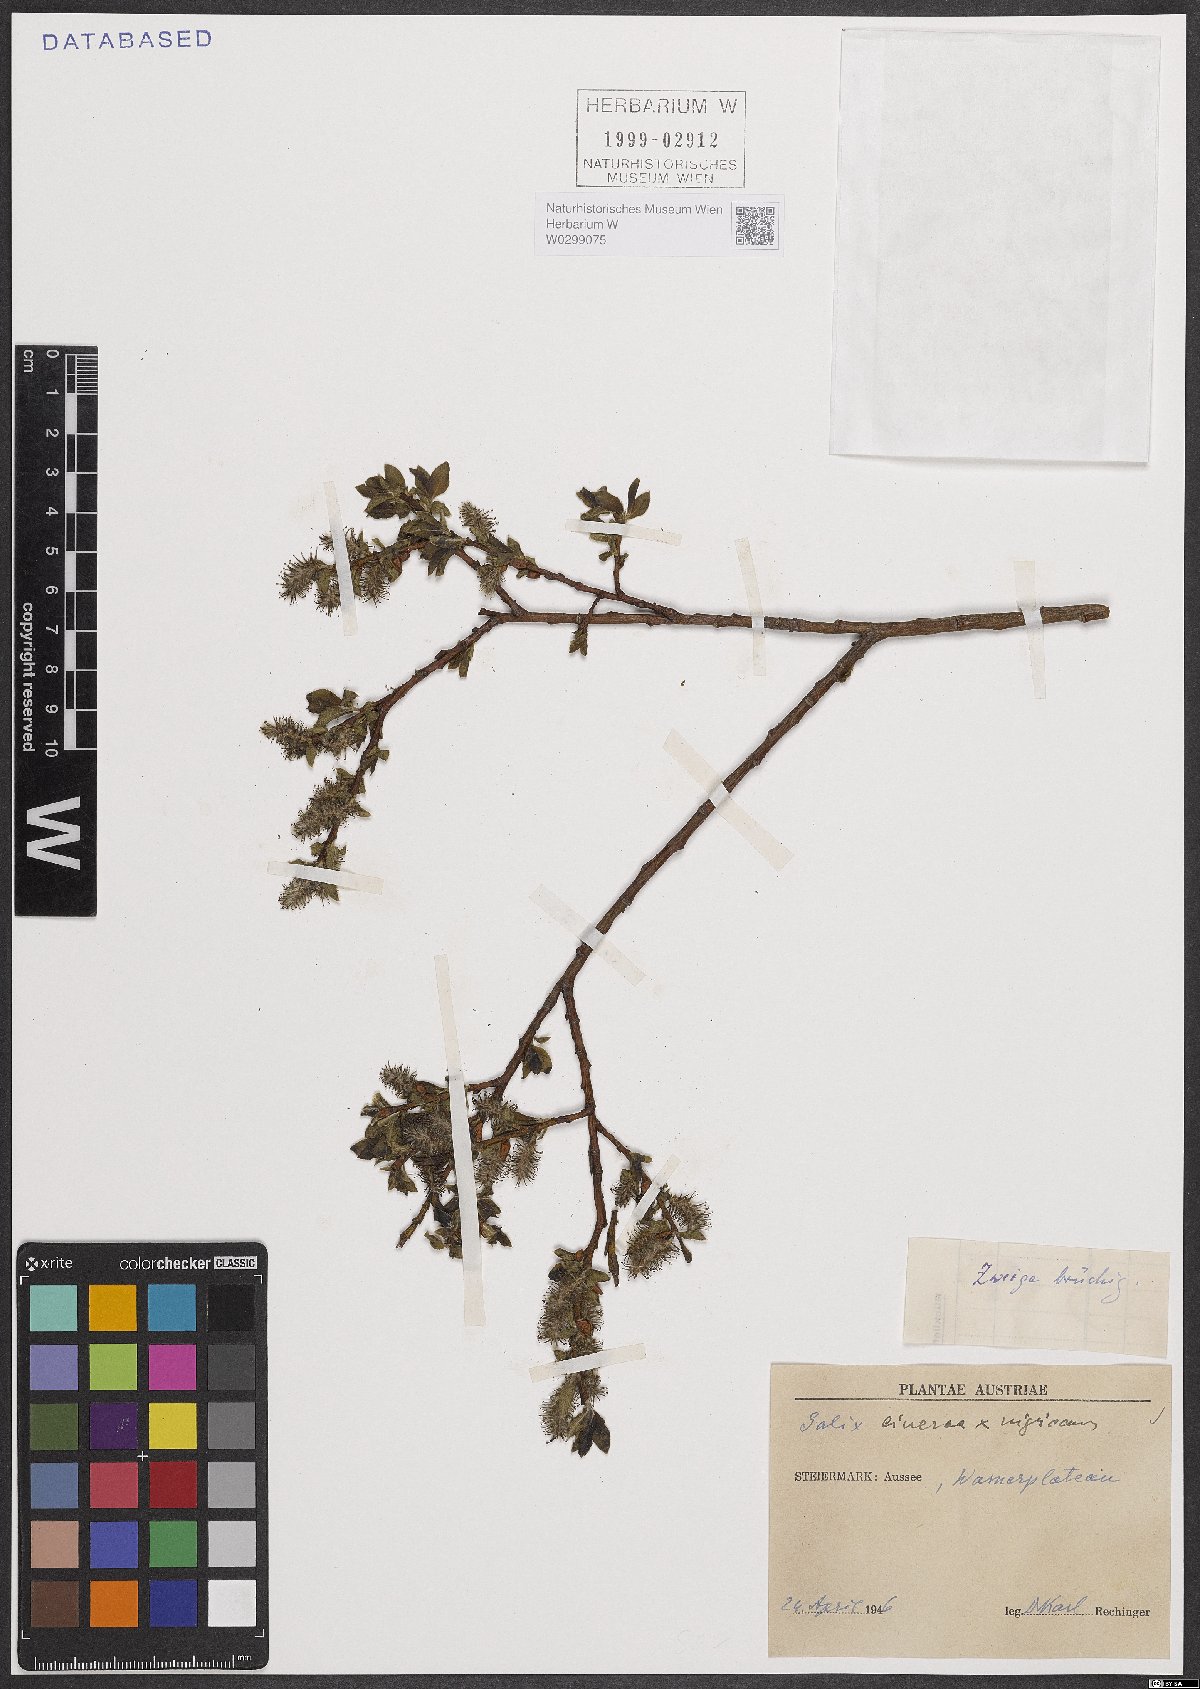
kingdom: Plantae
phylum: Tracheophyta
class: Magnoliopsida
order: Malpighiales
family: Salicaceae
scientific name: Salicaceae
